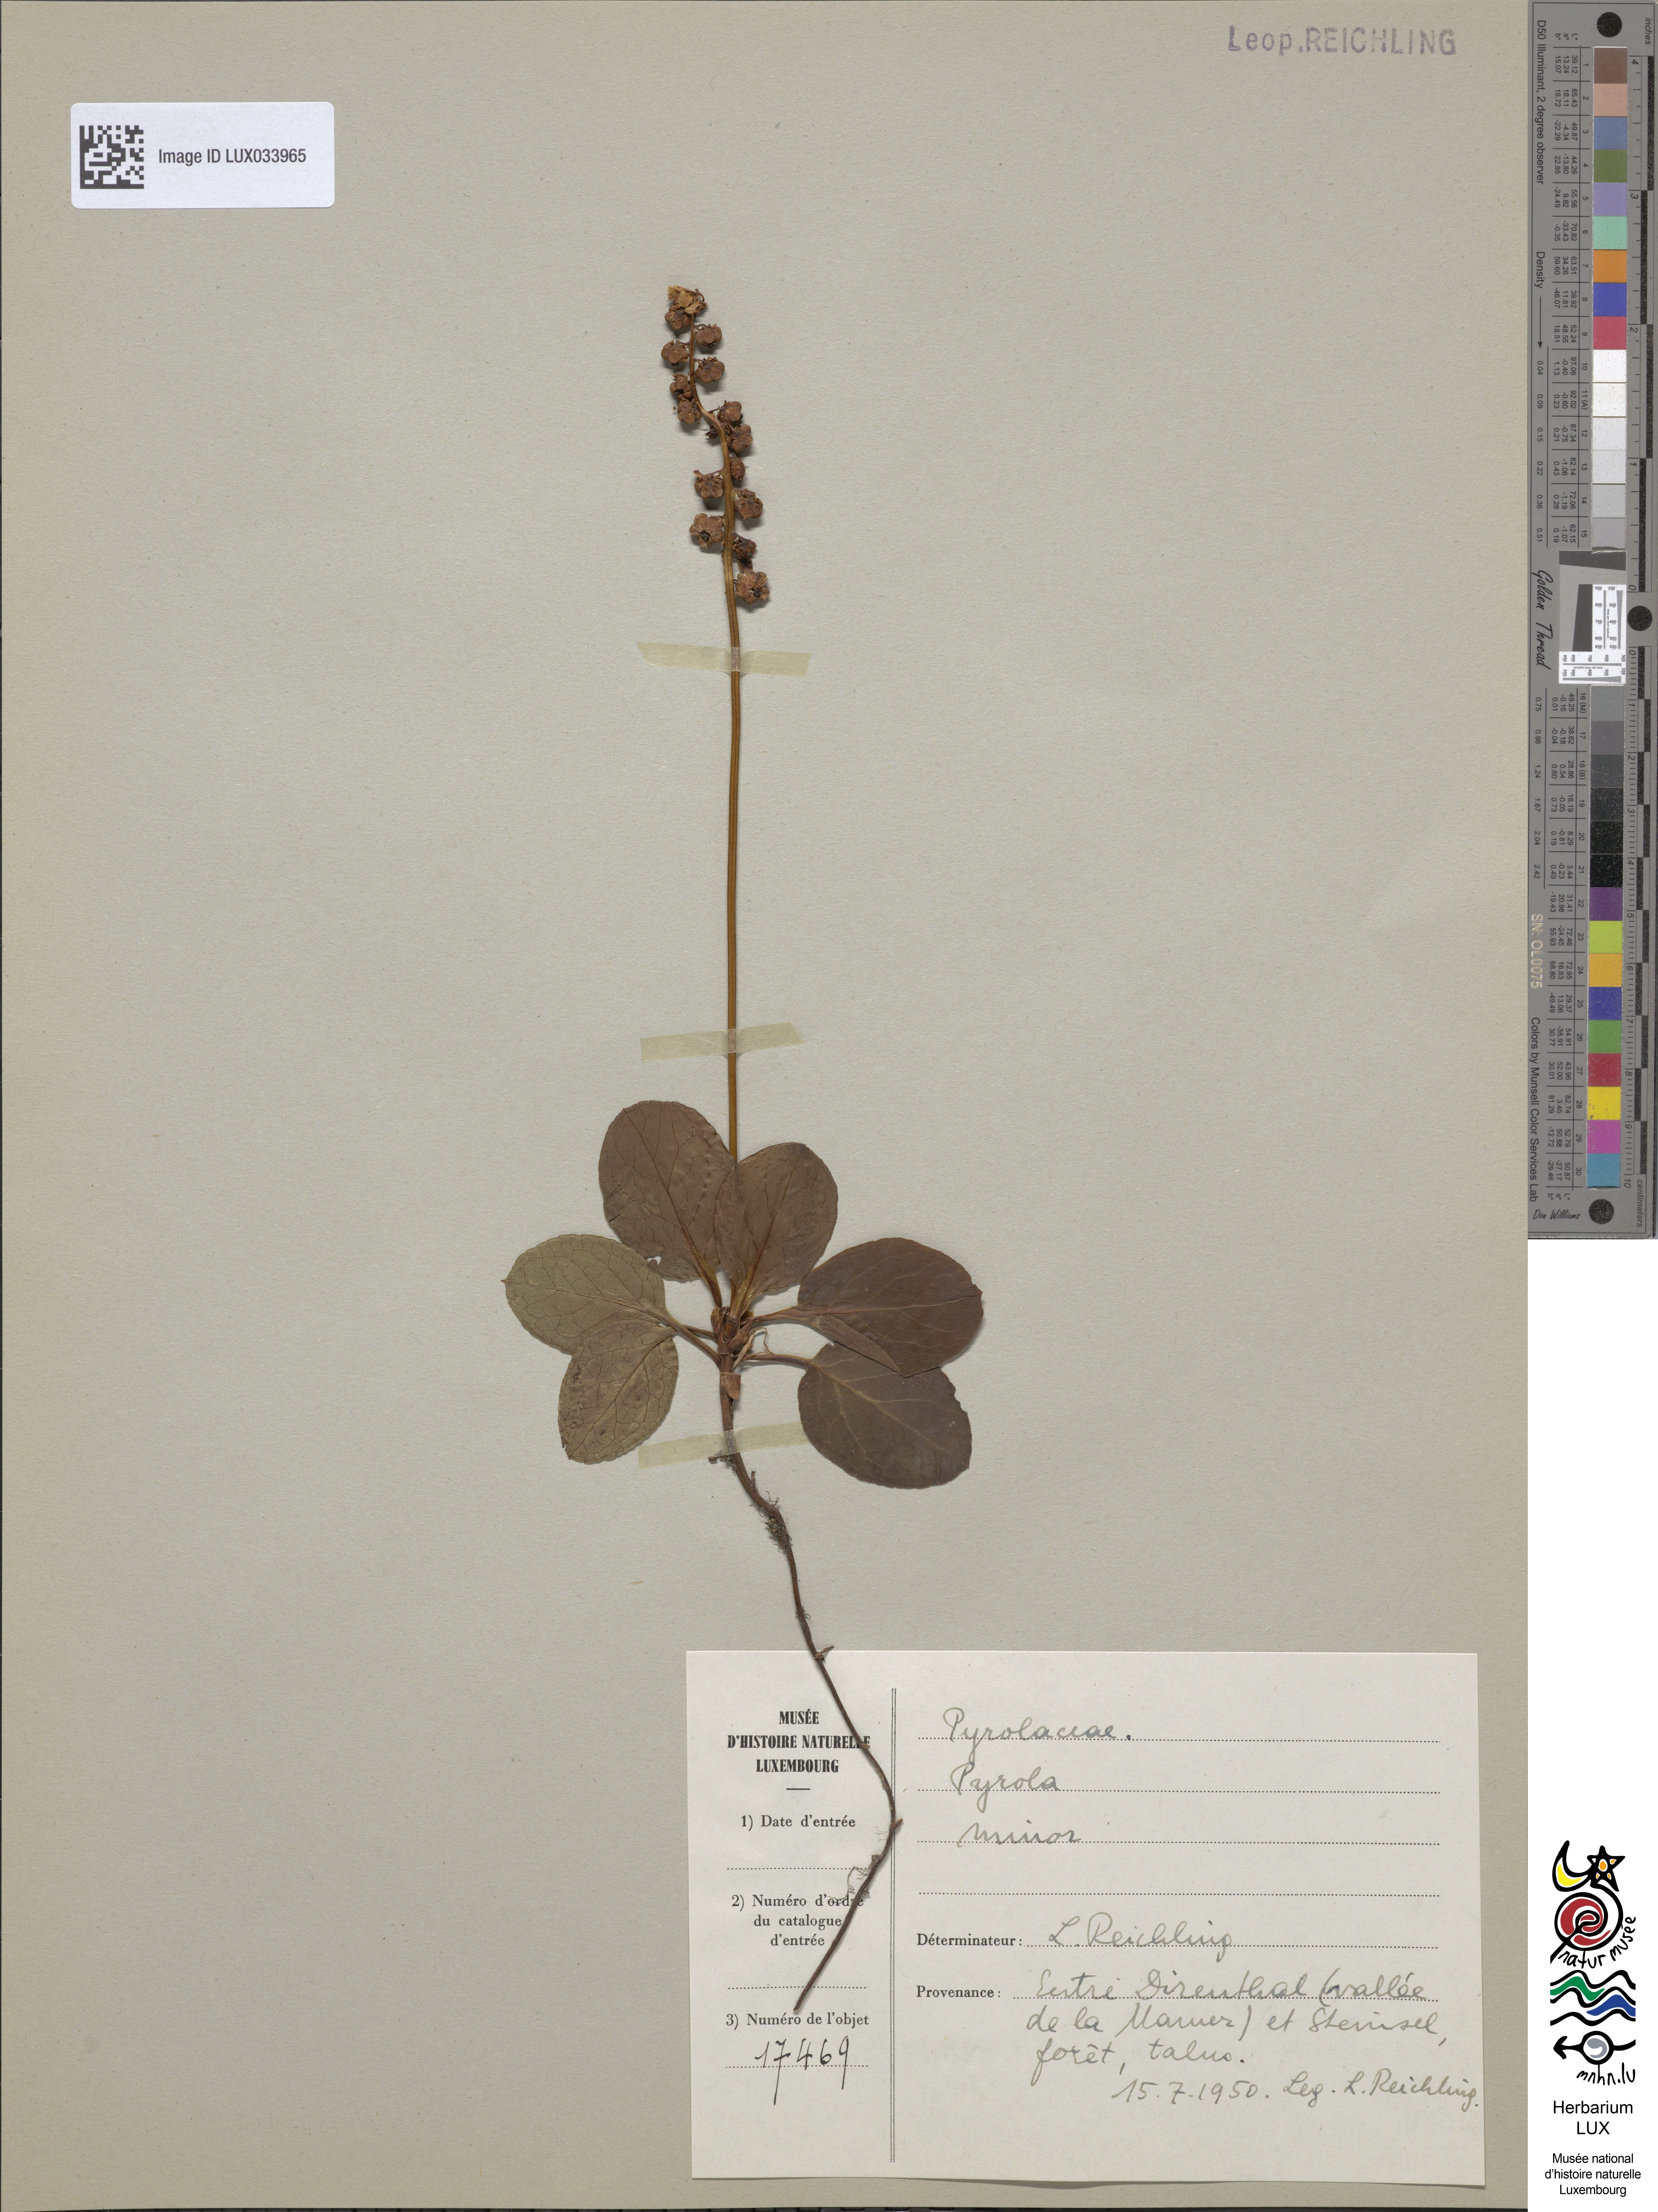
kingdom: Plantae
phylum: Tracheophyta
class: Magnoliopsida
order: Ericales
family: Ericaceae
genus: Pyrola
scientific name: Pyrola minor
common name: Common wintergreen
